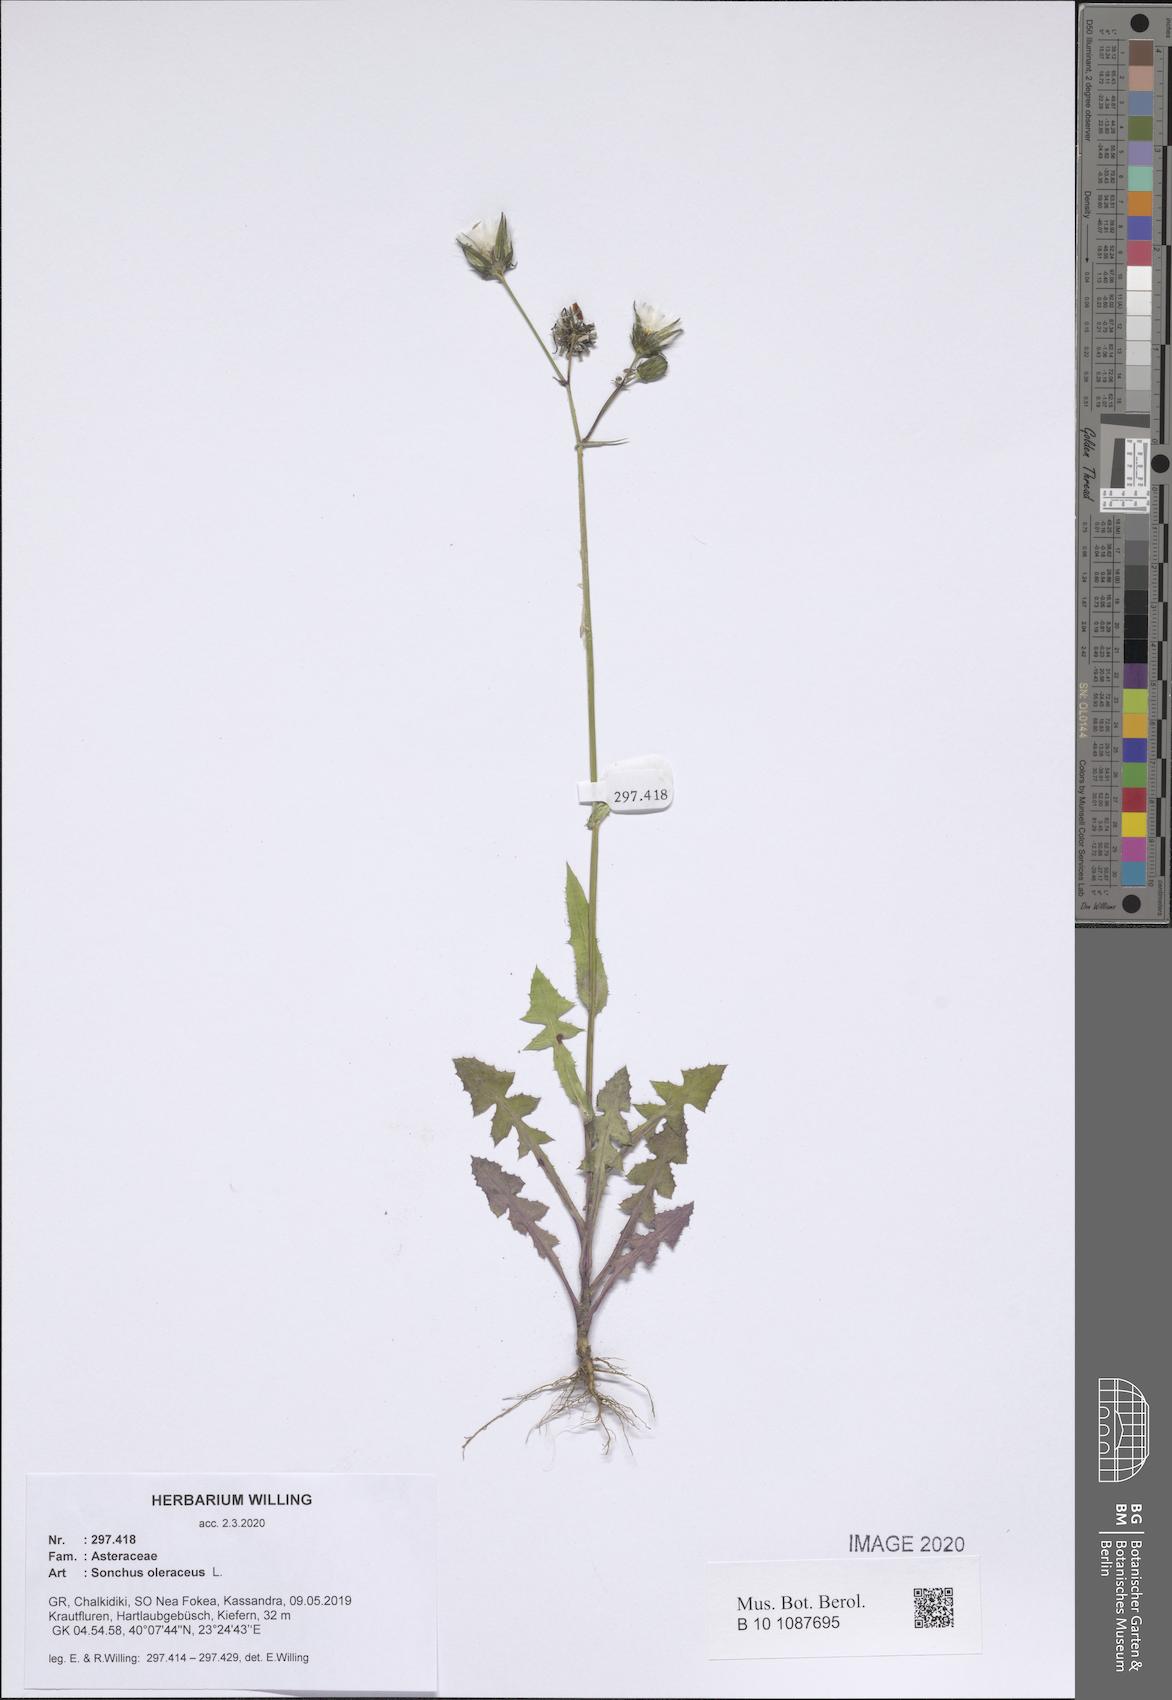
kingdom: Plantae
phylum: Tracheophyta
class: Magnoliopsida
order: Asterales
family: Asteraceae
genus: Sonchus
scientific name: Sonchus oleraceus
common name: Common sowthistle
